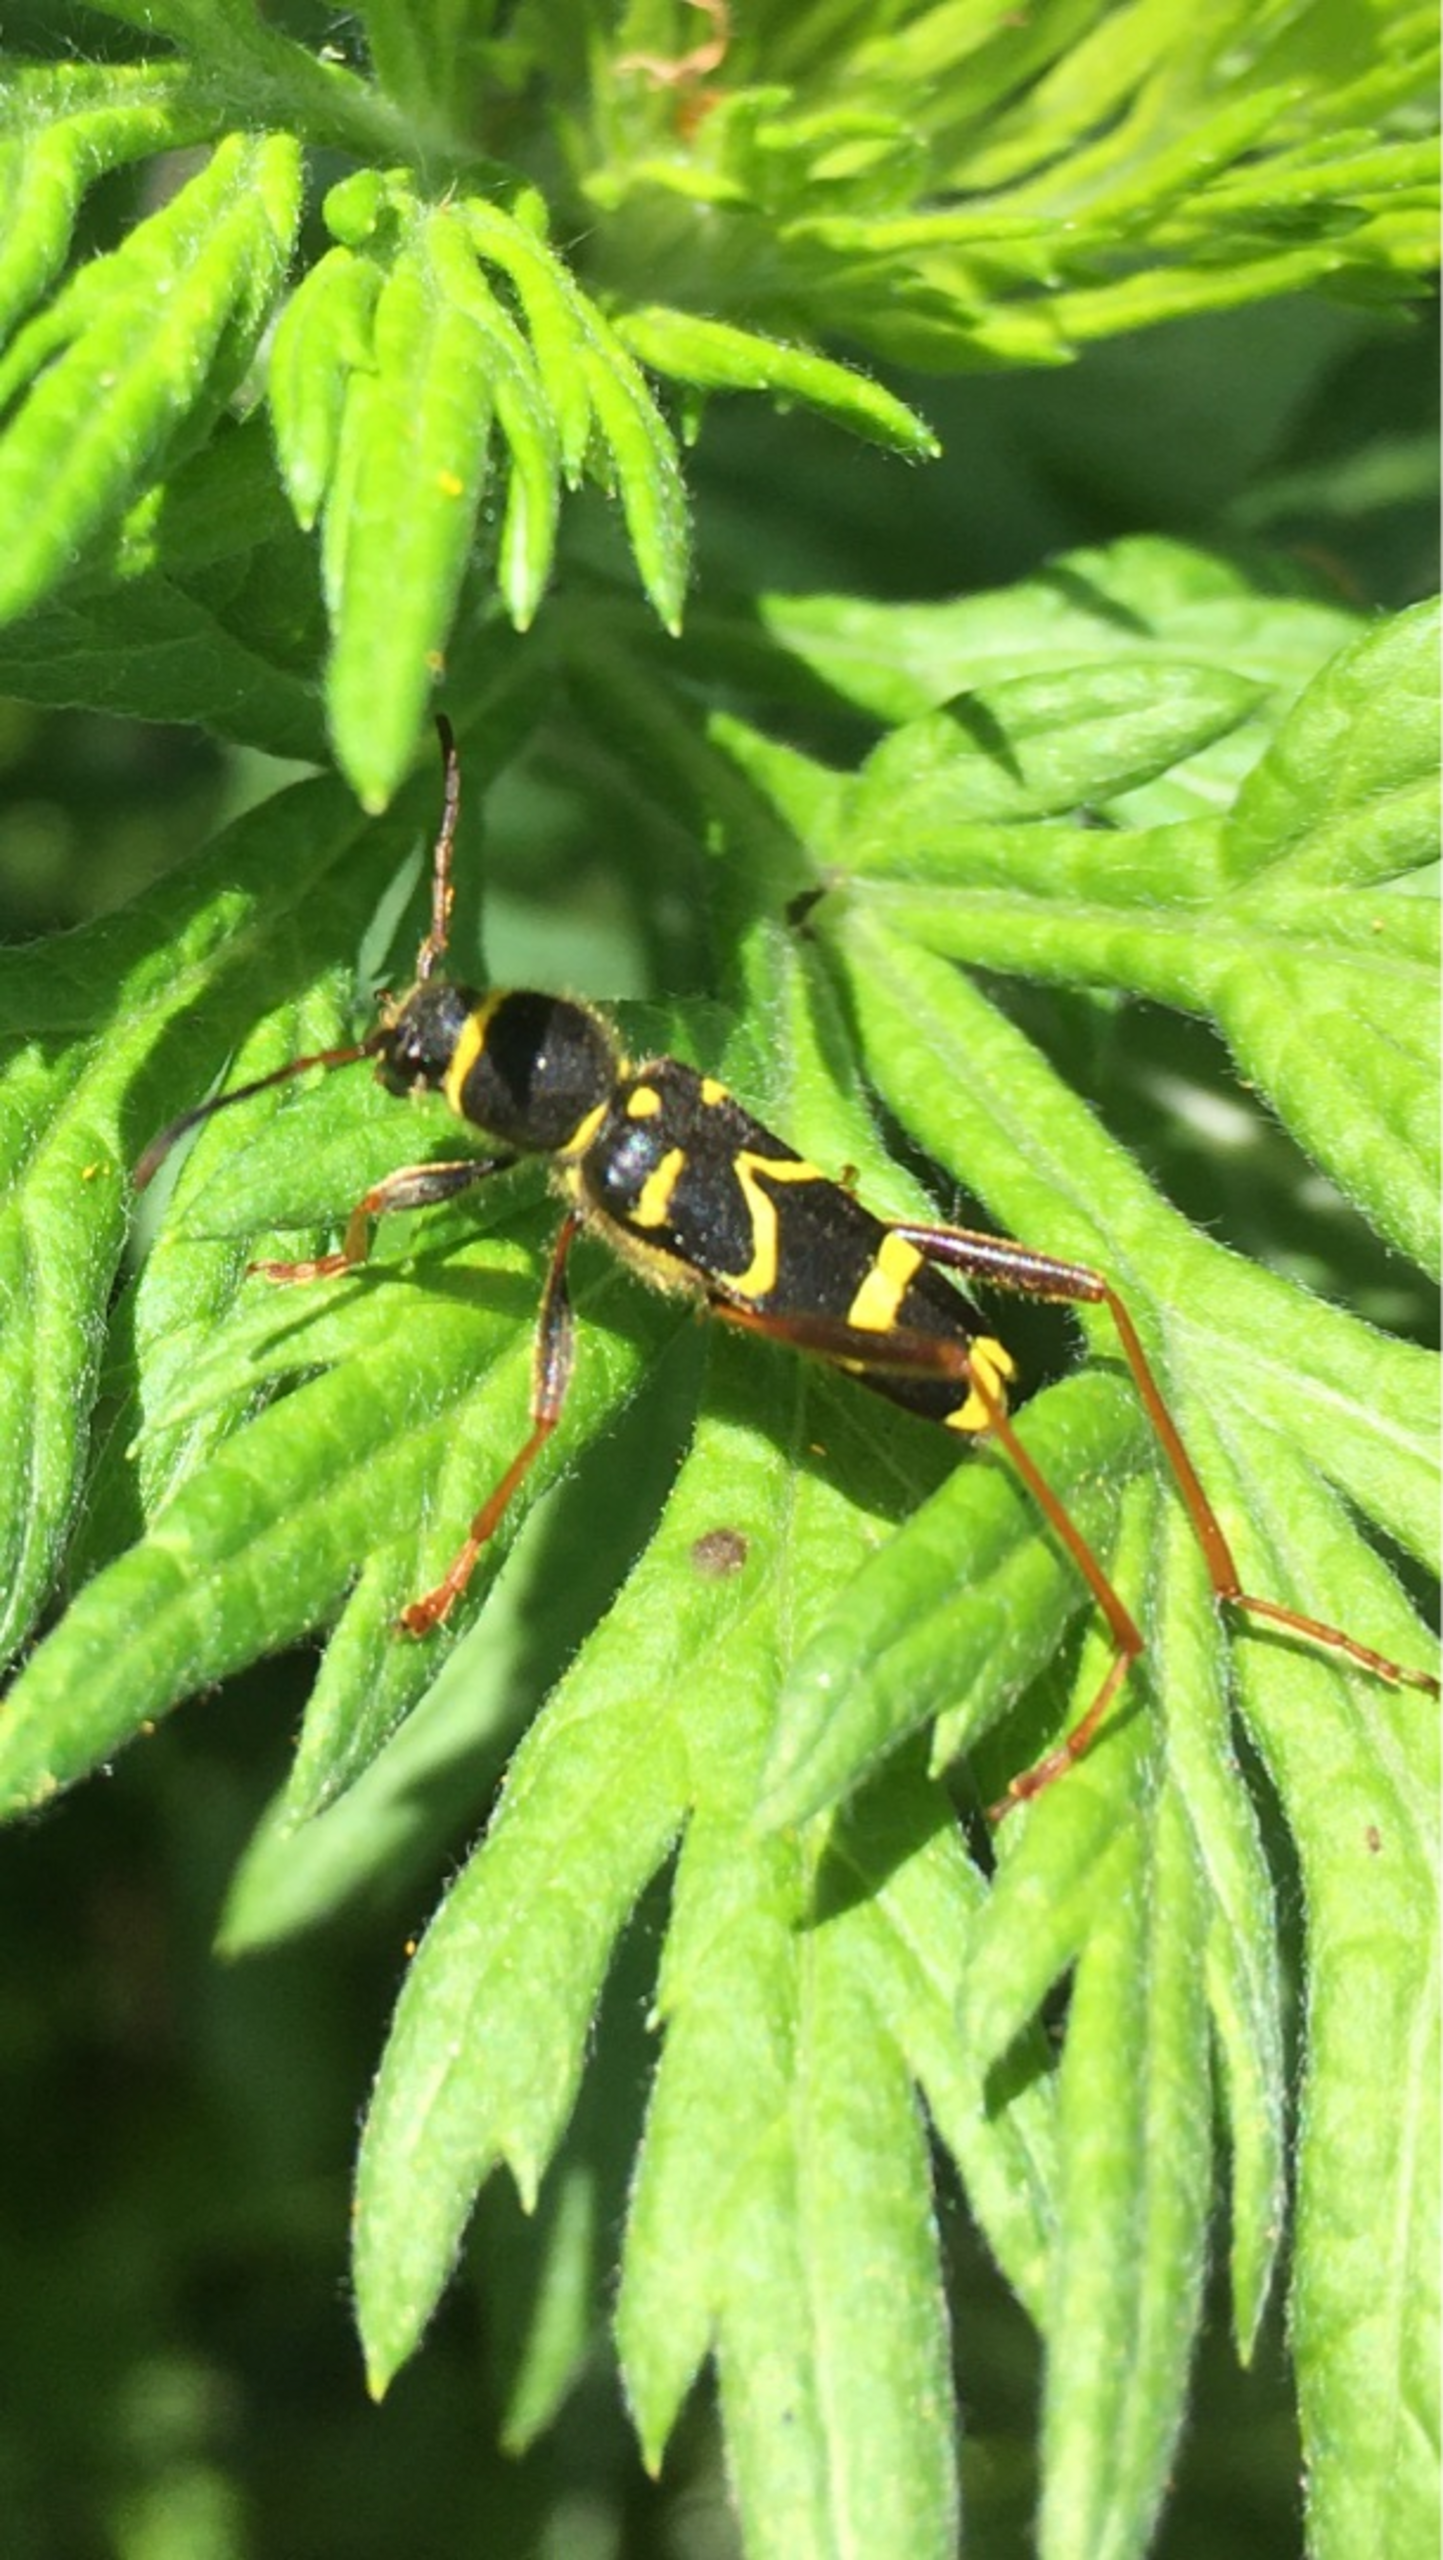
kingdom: Animalia
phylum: Arthropoda
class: Insecta
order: Coleoptera
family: Cerambycidae
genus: Clytus
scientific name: Clytus arietis
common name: Lille hvepsebuk
